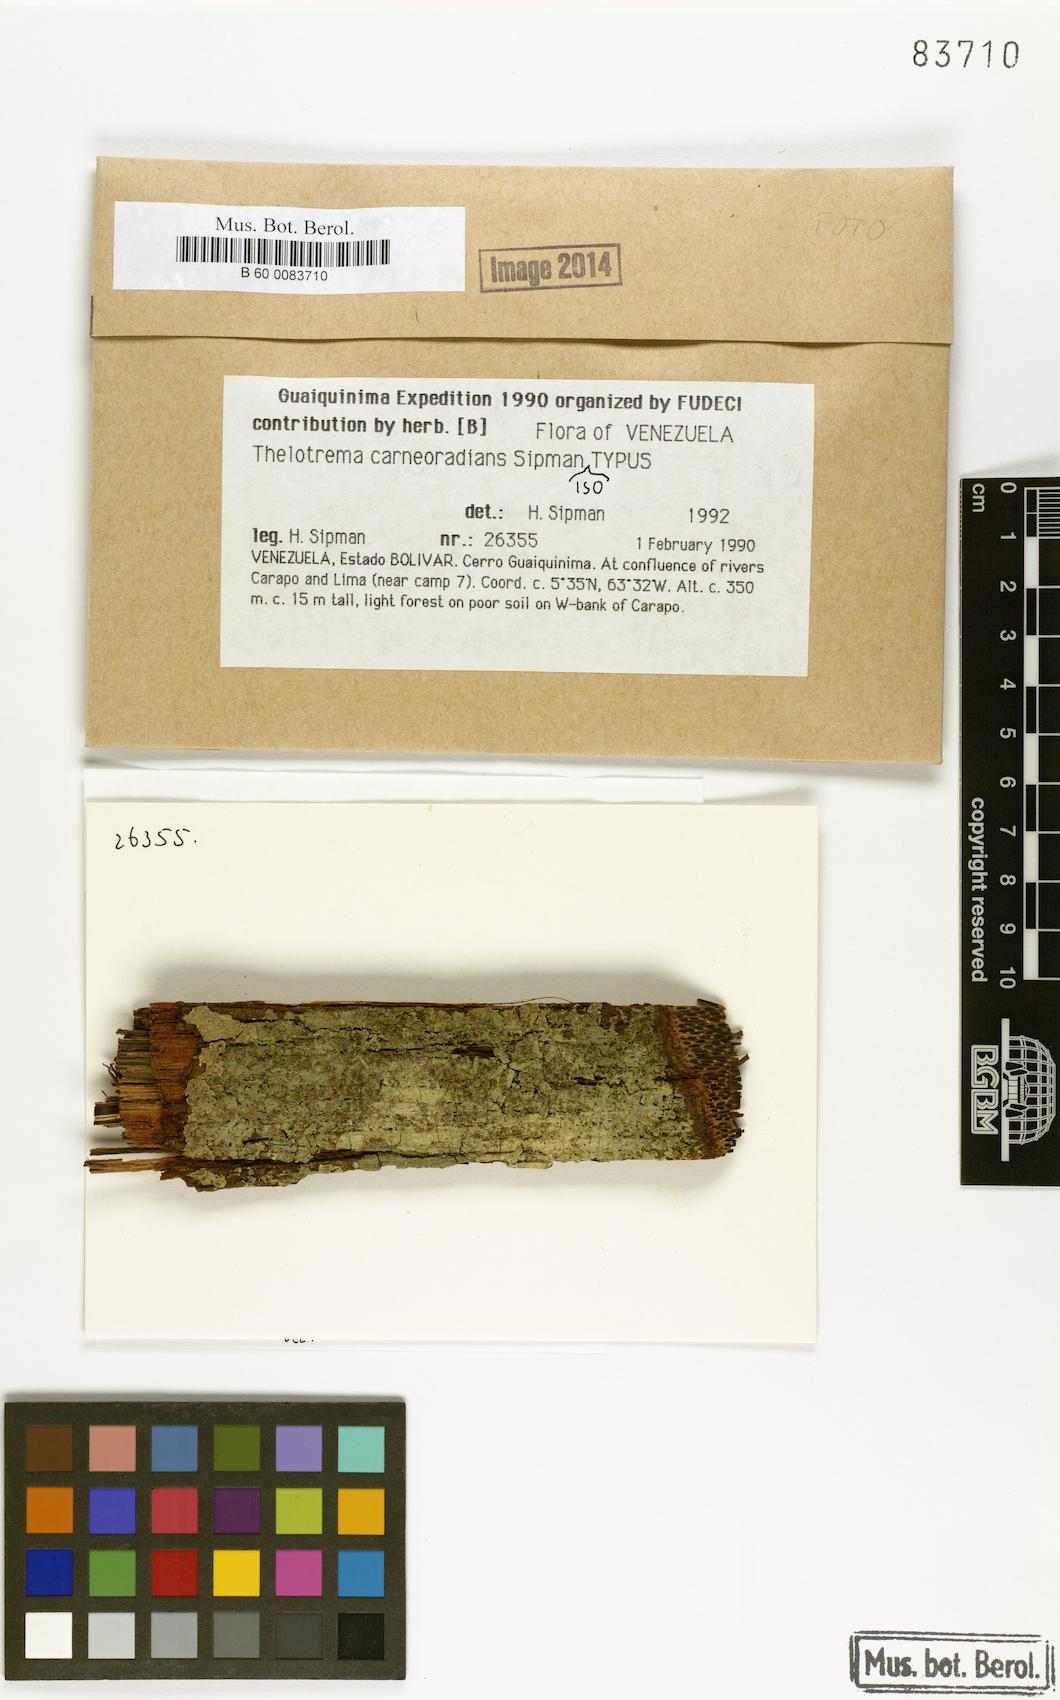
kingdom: Fungi
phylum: Ascomycota
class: Lecanoromycetes
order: Ostropales
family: Graphidaceae
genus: Thelotrema
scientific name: Thelotrema carneoradians
